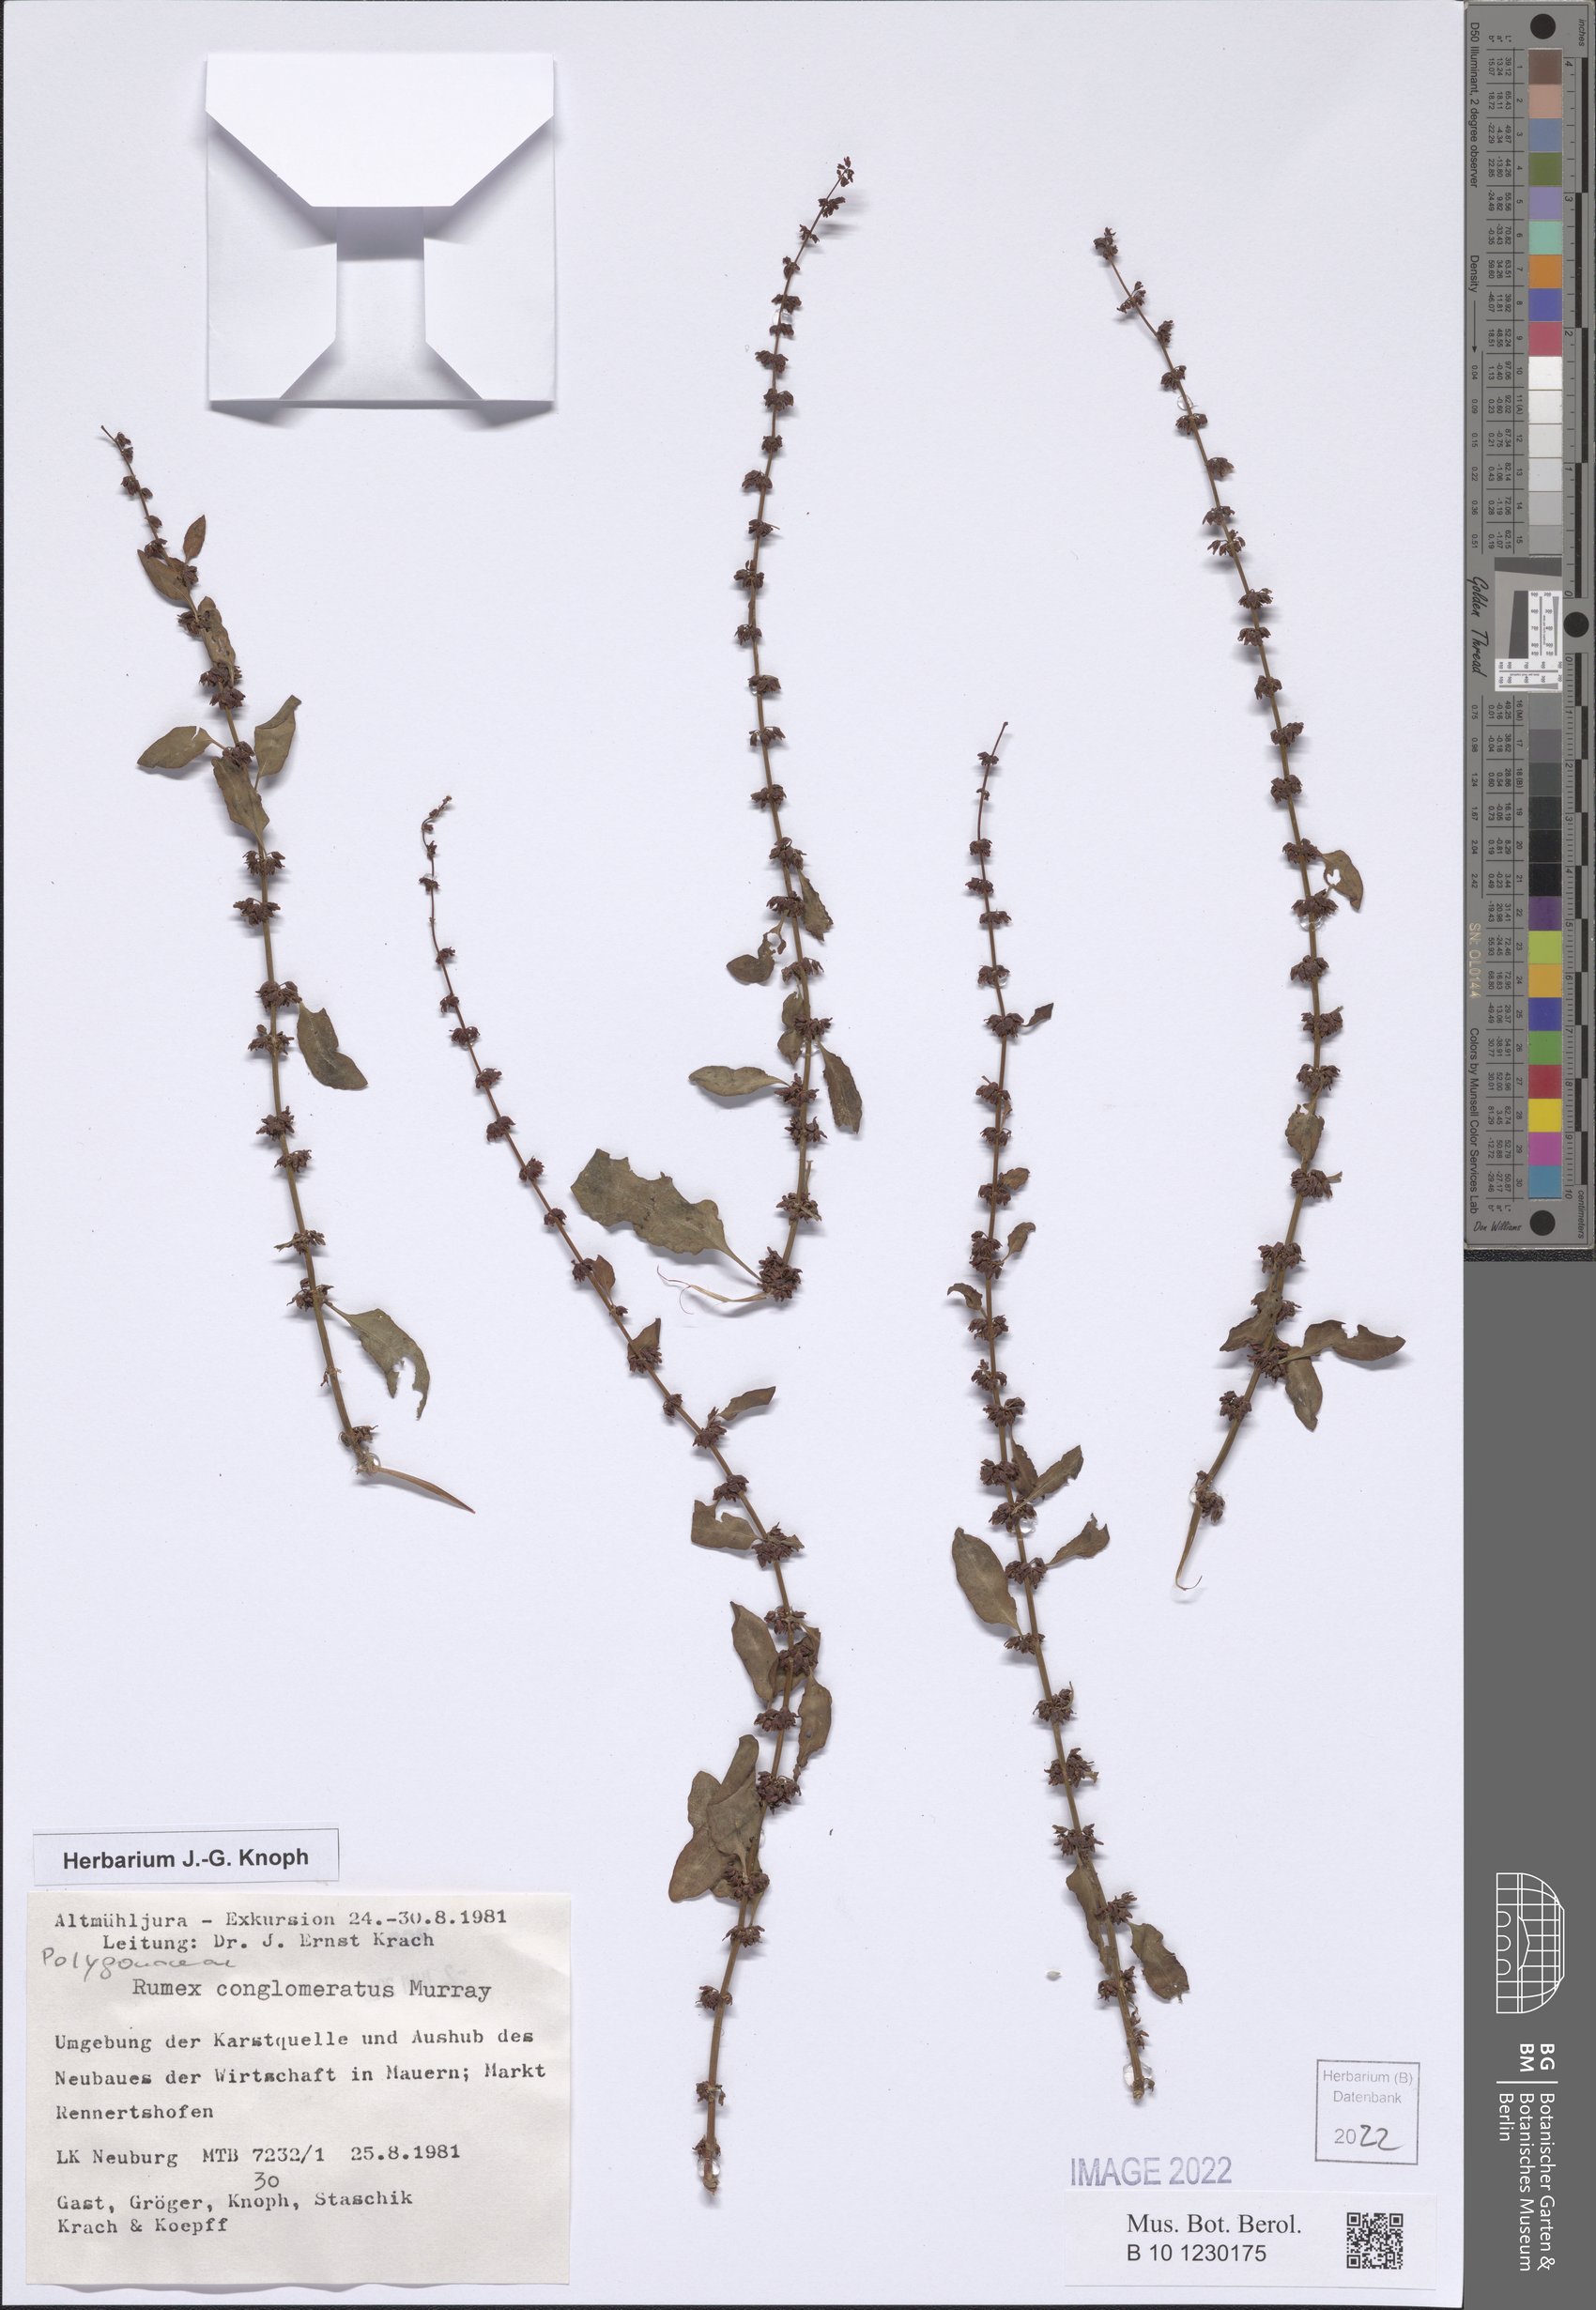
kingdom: Plantae
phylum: Tracheophyta
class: Magnoliopsida
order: Caryophyllales
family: Polygonaceae
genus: Rumex
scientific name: Rumex conglomeratus
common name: Clustered dock
